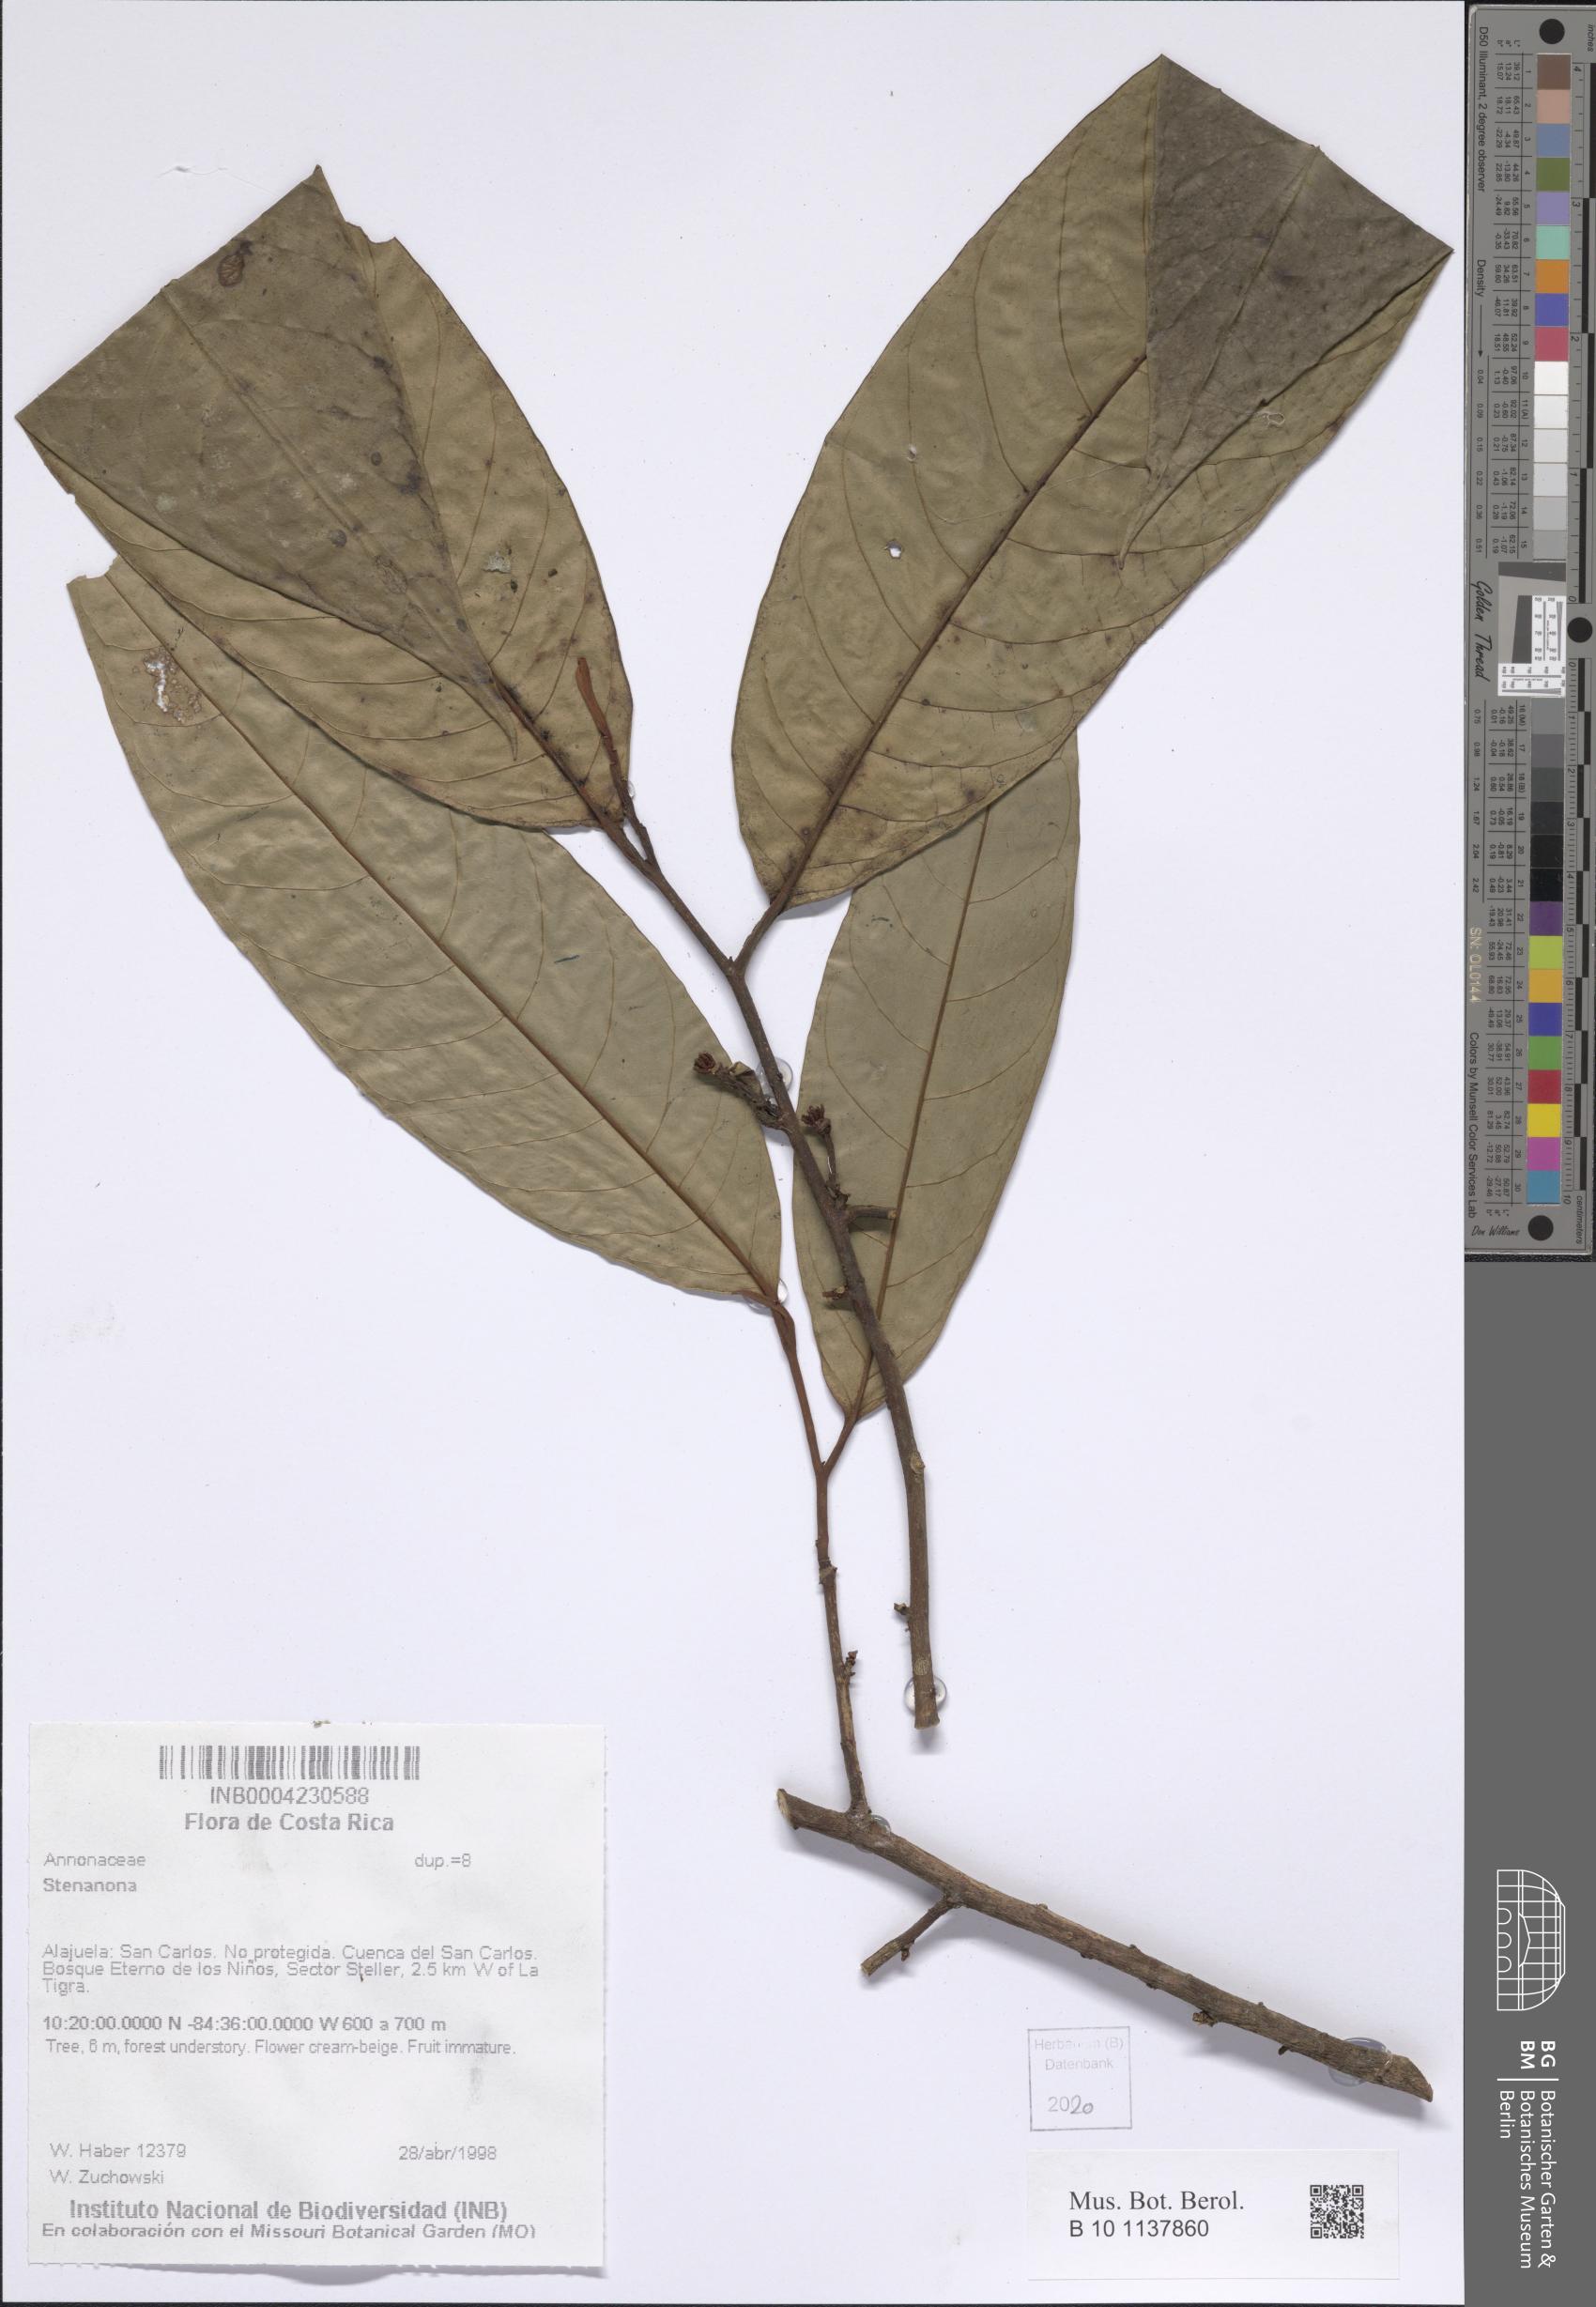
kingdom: Plantae
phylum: Tracheophyta
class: Magnoliopsida
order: Magnoliales
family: Annonaceae
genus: Stenanona
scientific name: Stenanona
